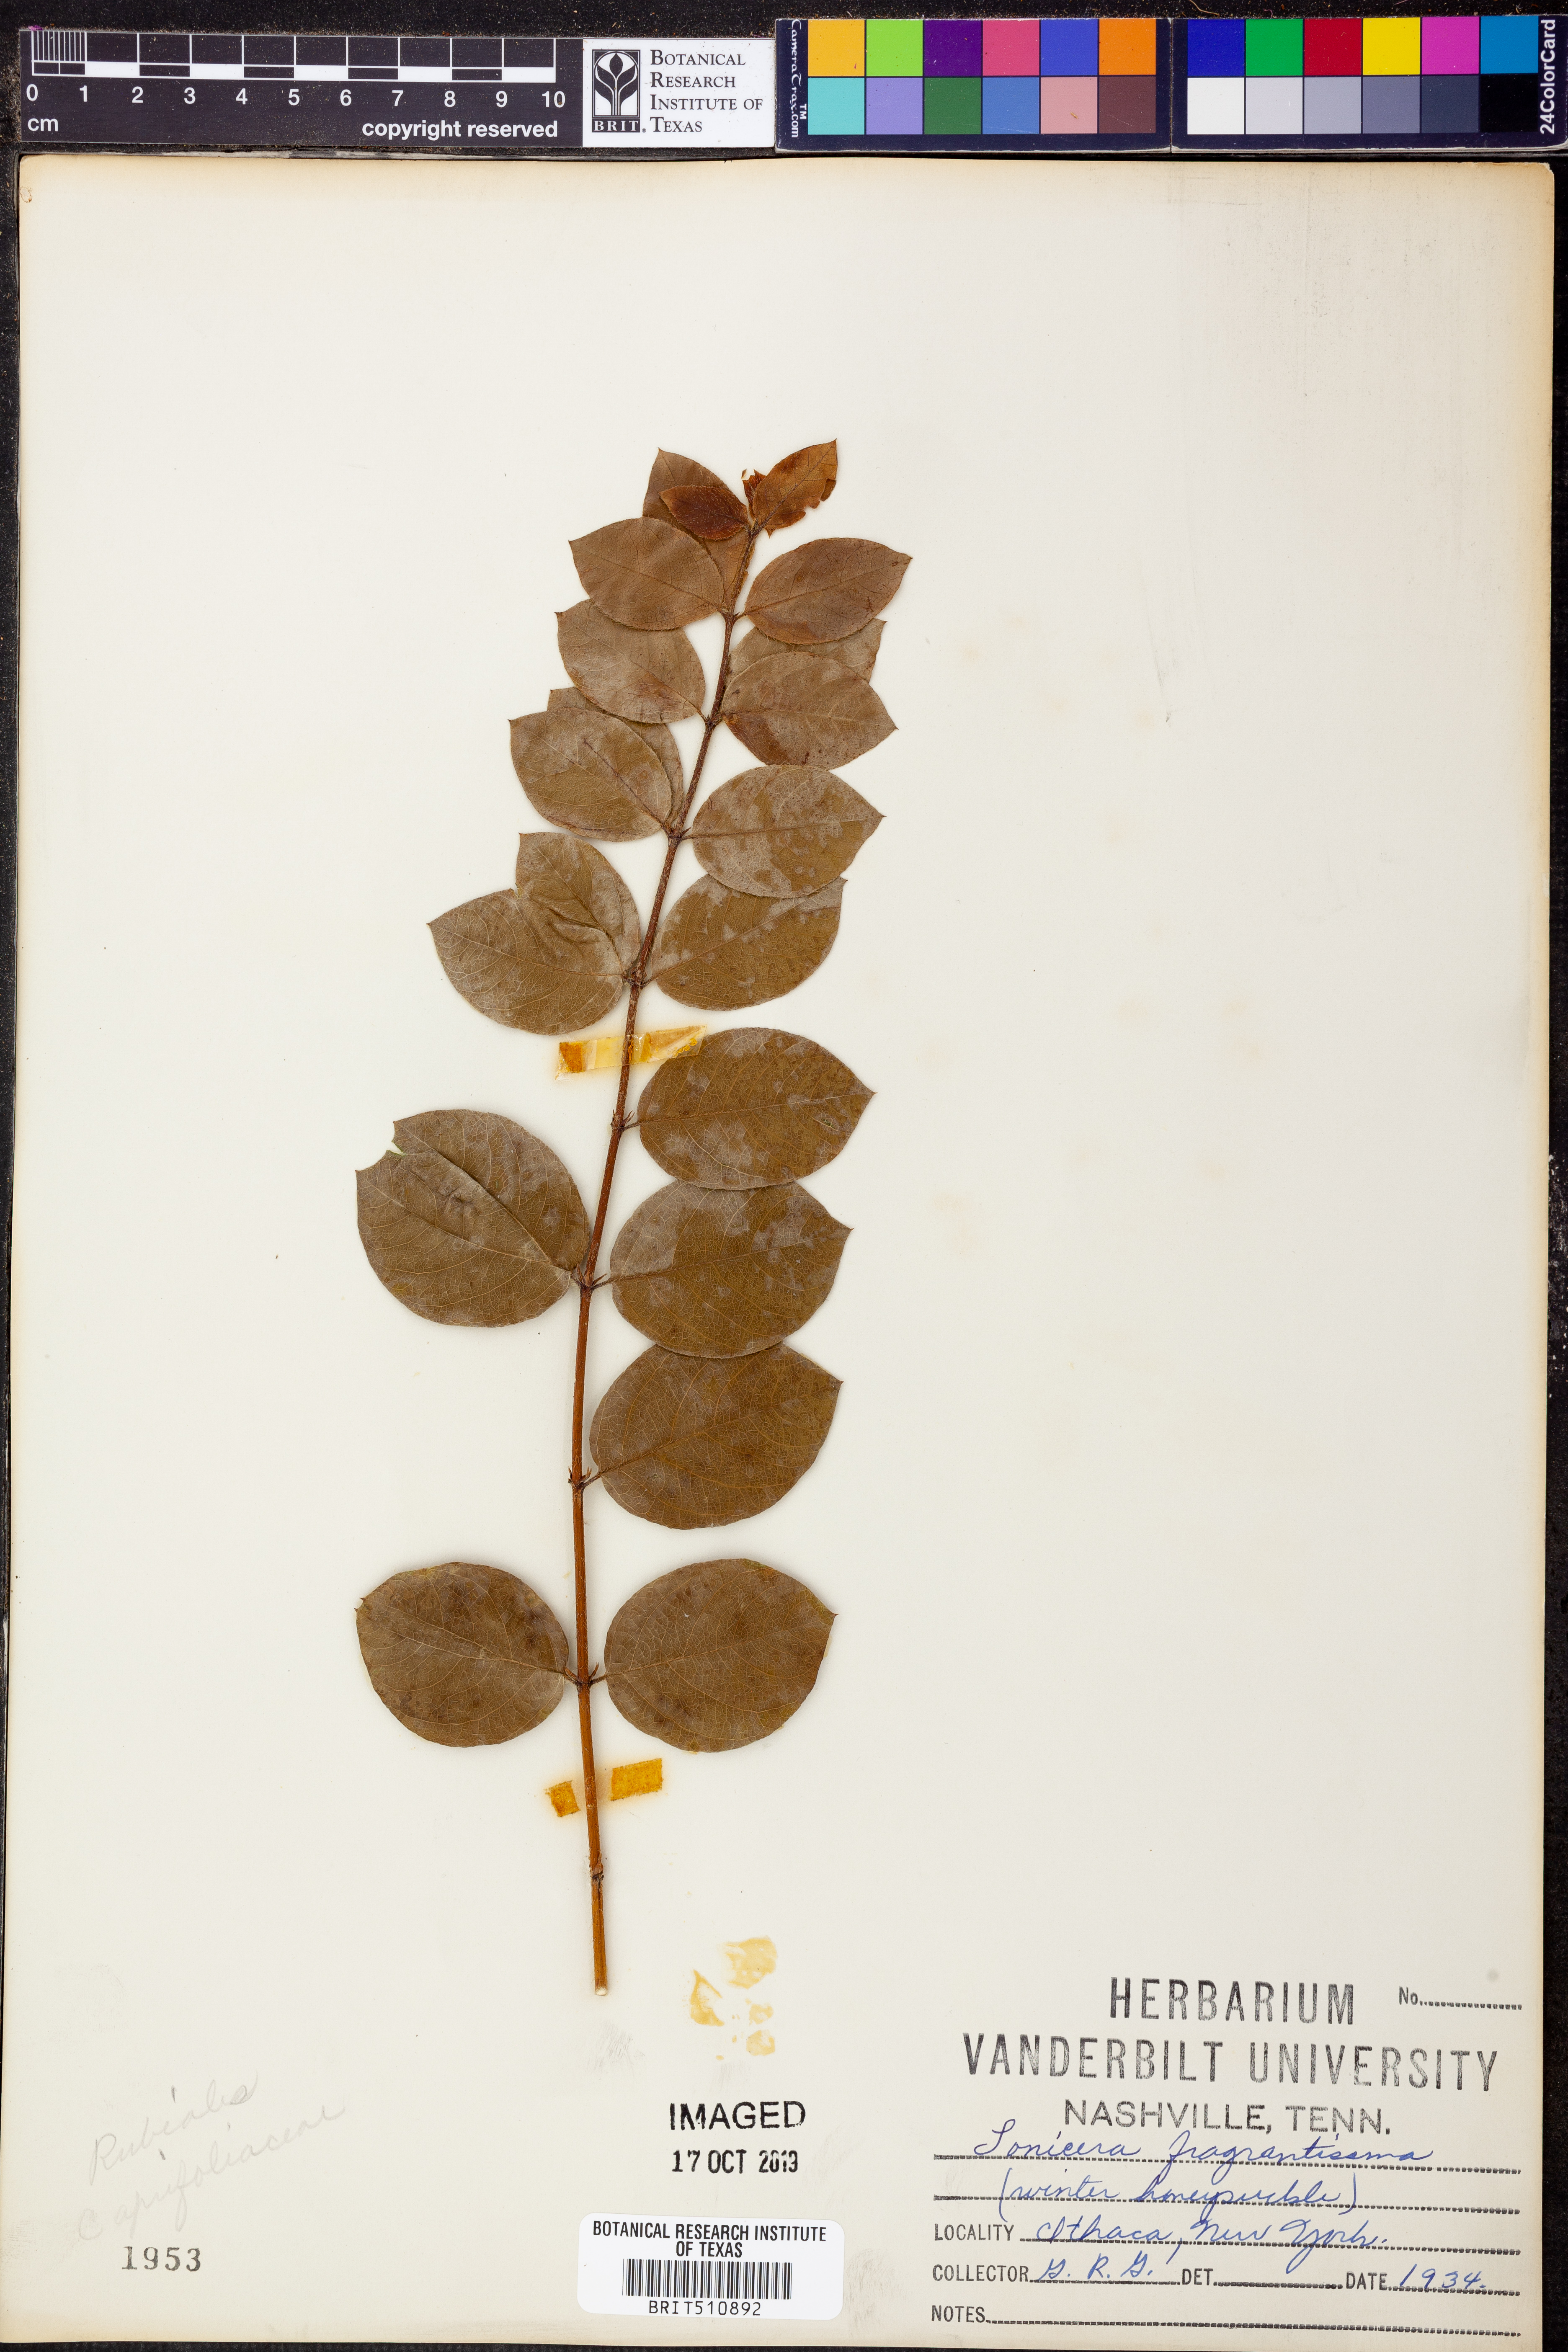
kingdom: Plantae
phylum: Tracheophyta
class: Magnoliopsida
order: Dipsacales
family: Caprifoliaceae
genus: Lonicera
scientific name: Lonicera fragrantissima
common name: Fragrant honeysuckle
